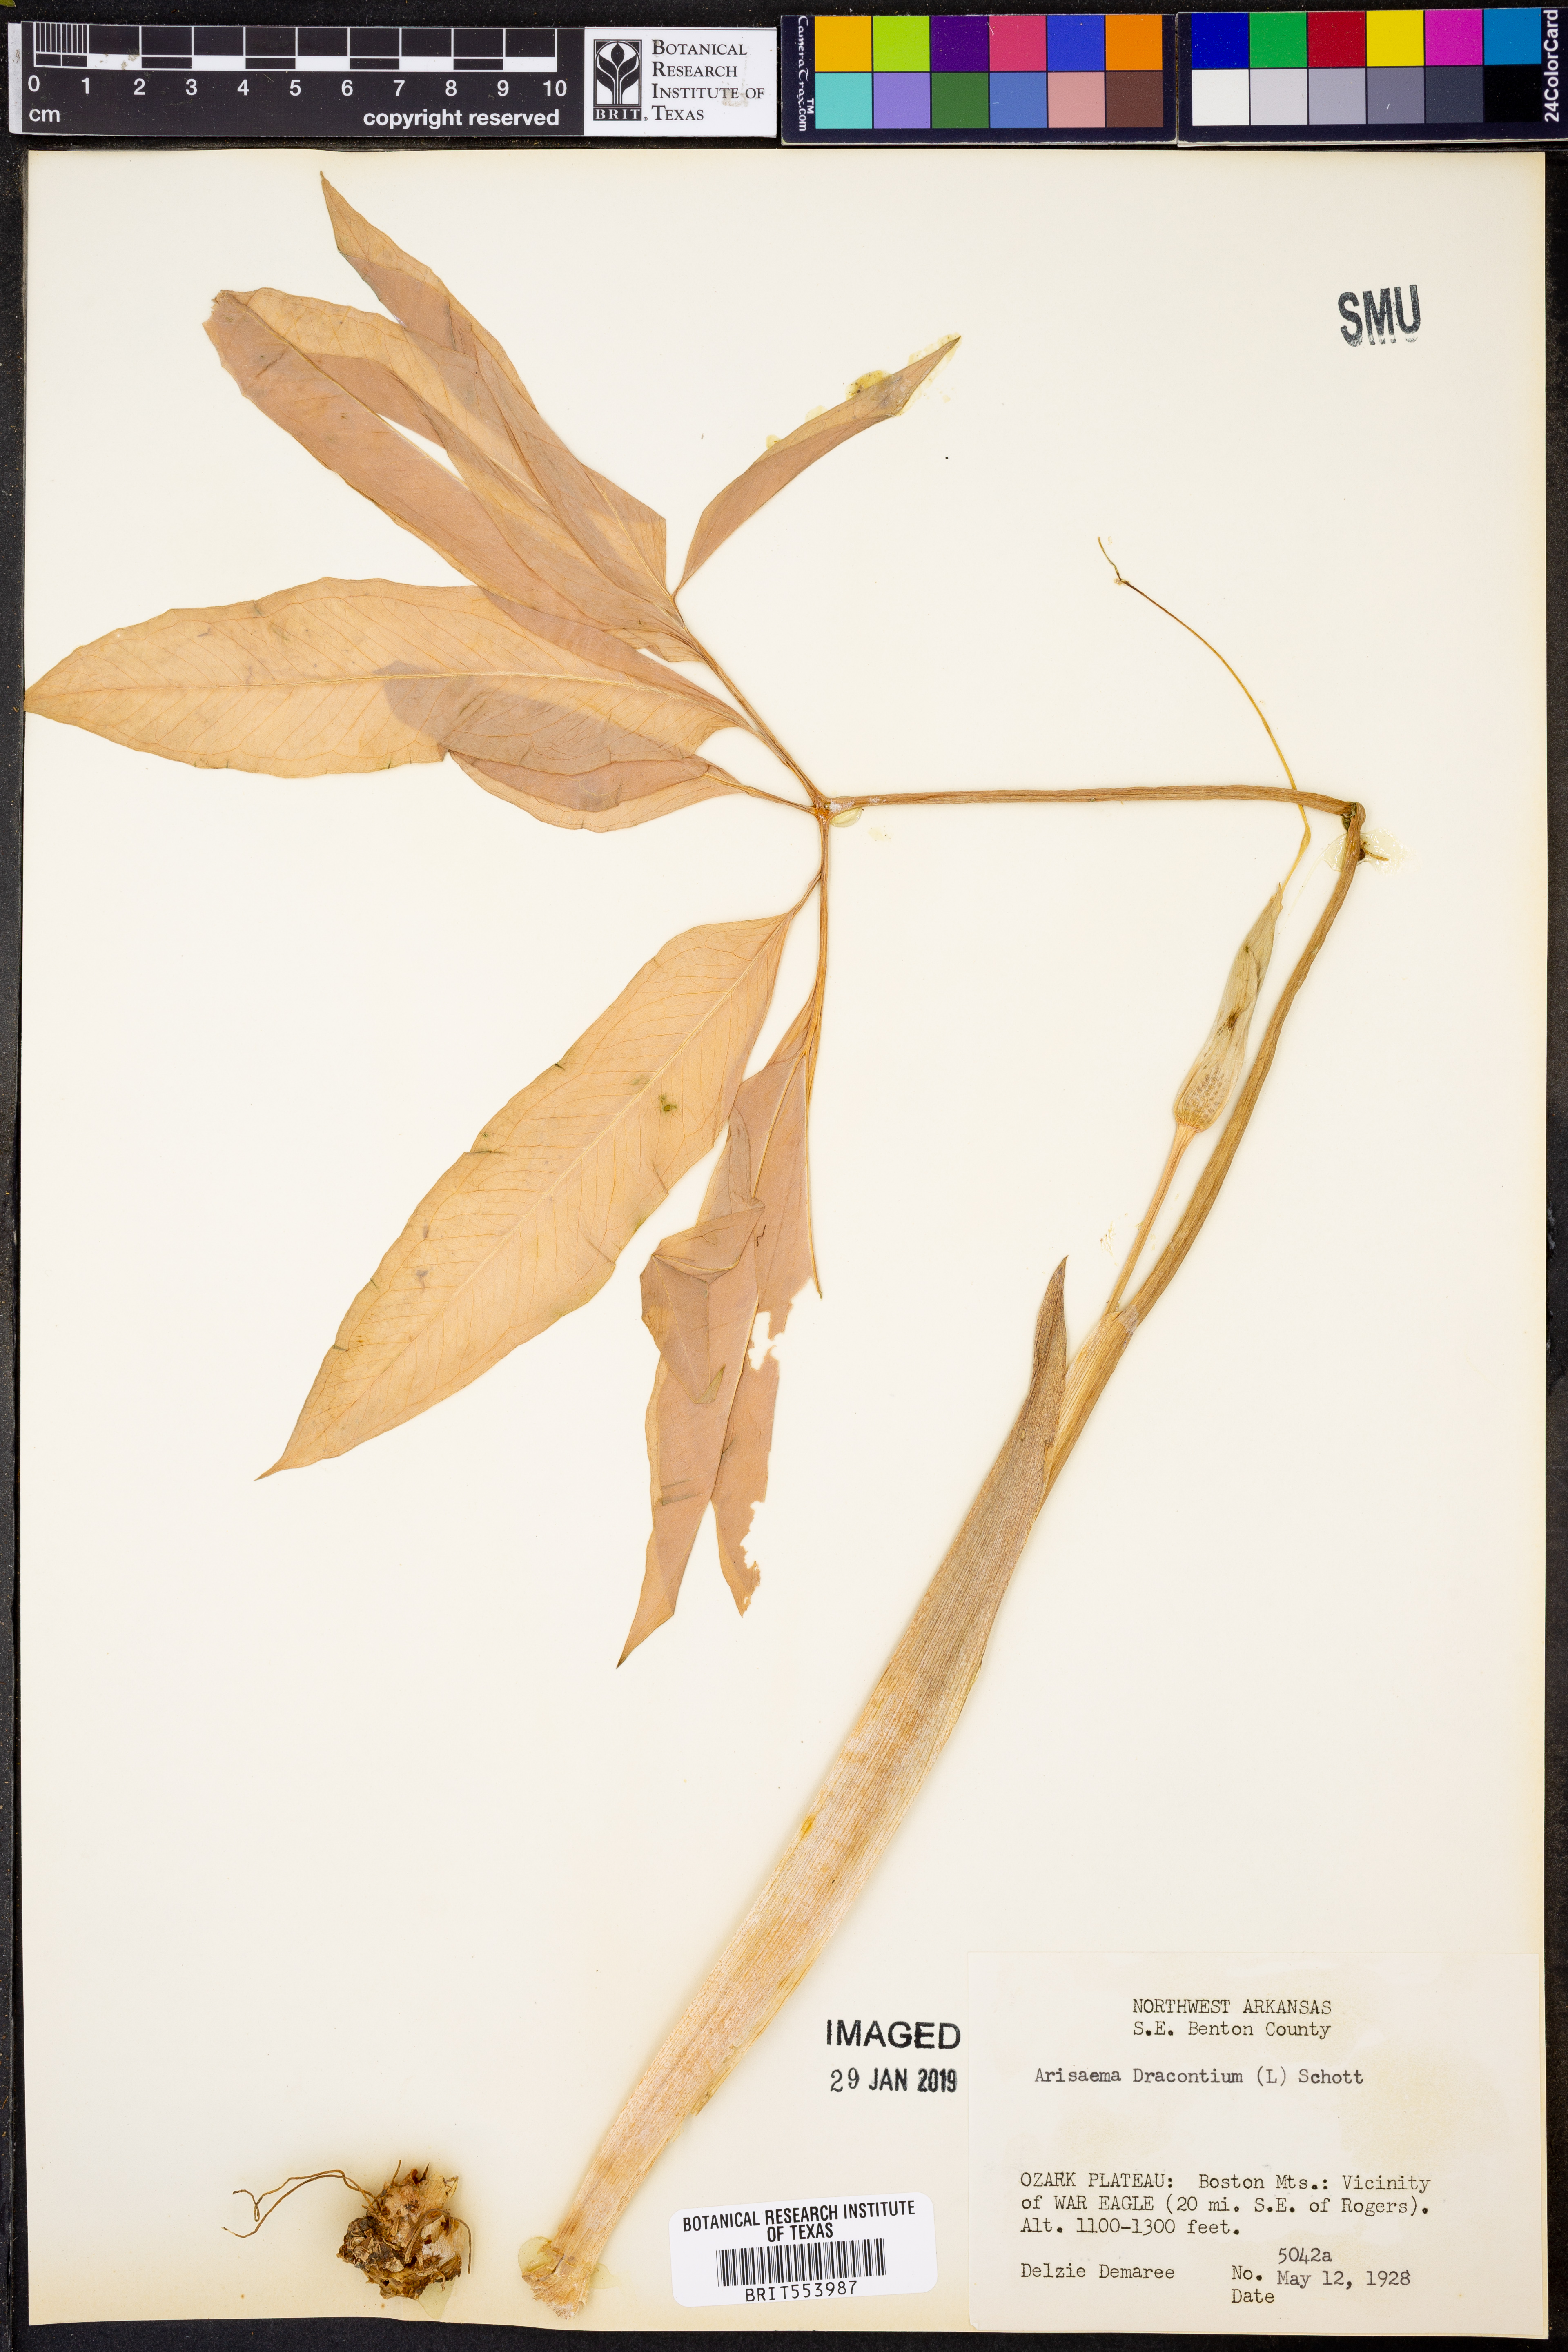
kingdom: Plantae
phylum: Tracheophyta
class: Liliopsida
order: Alismatales
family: Araceae
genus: Arisaema
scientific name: Arisaema dracontium
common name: Dragon-arum
